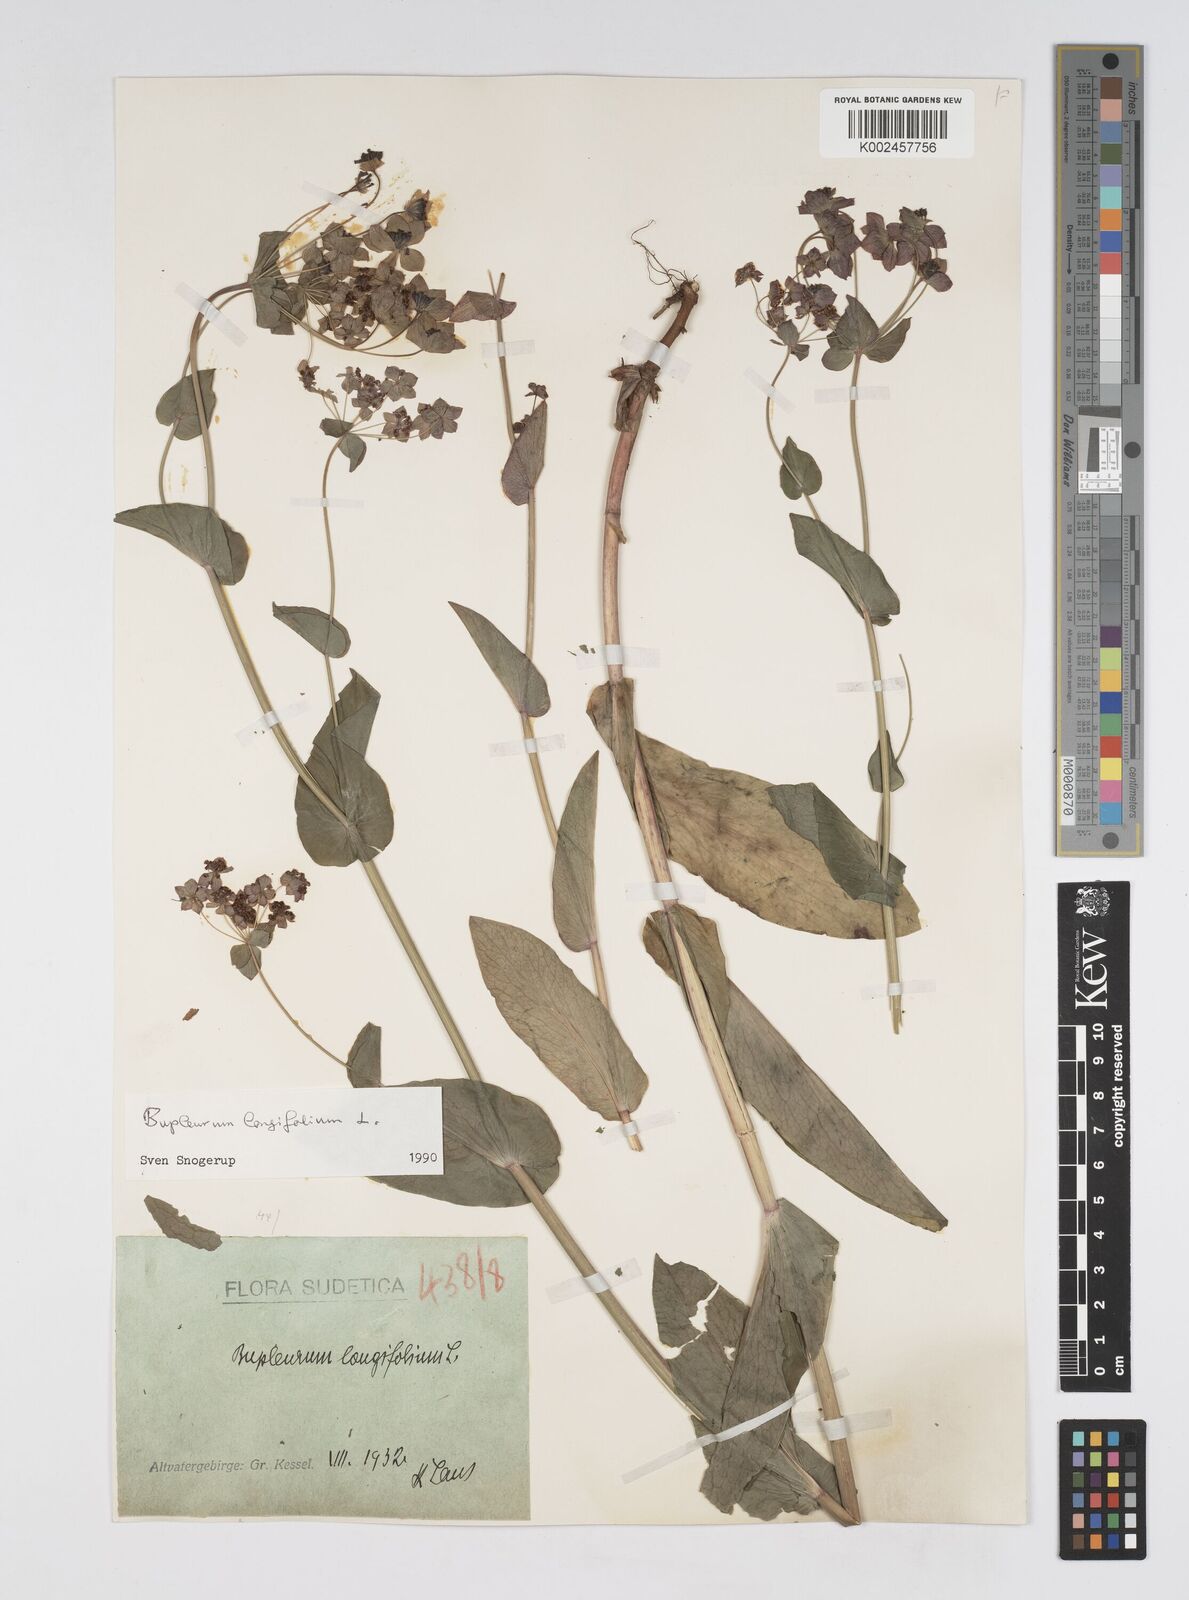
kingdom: Plantae
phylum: Tracheophyta
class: Magnoliopsida
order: Apiales
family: Apiaceae
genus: Bupleurum
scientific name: Bupleurum longifolium
